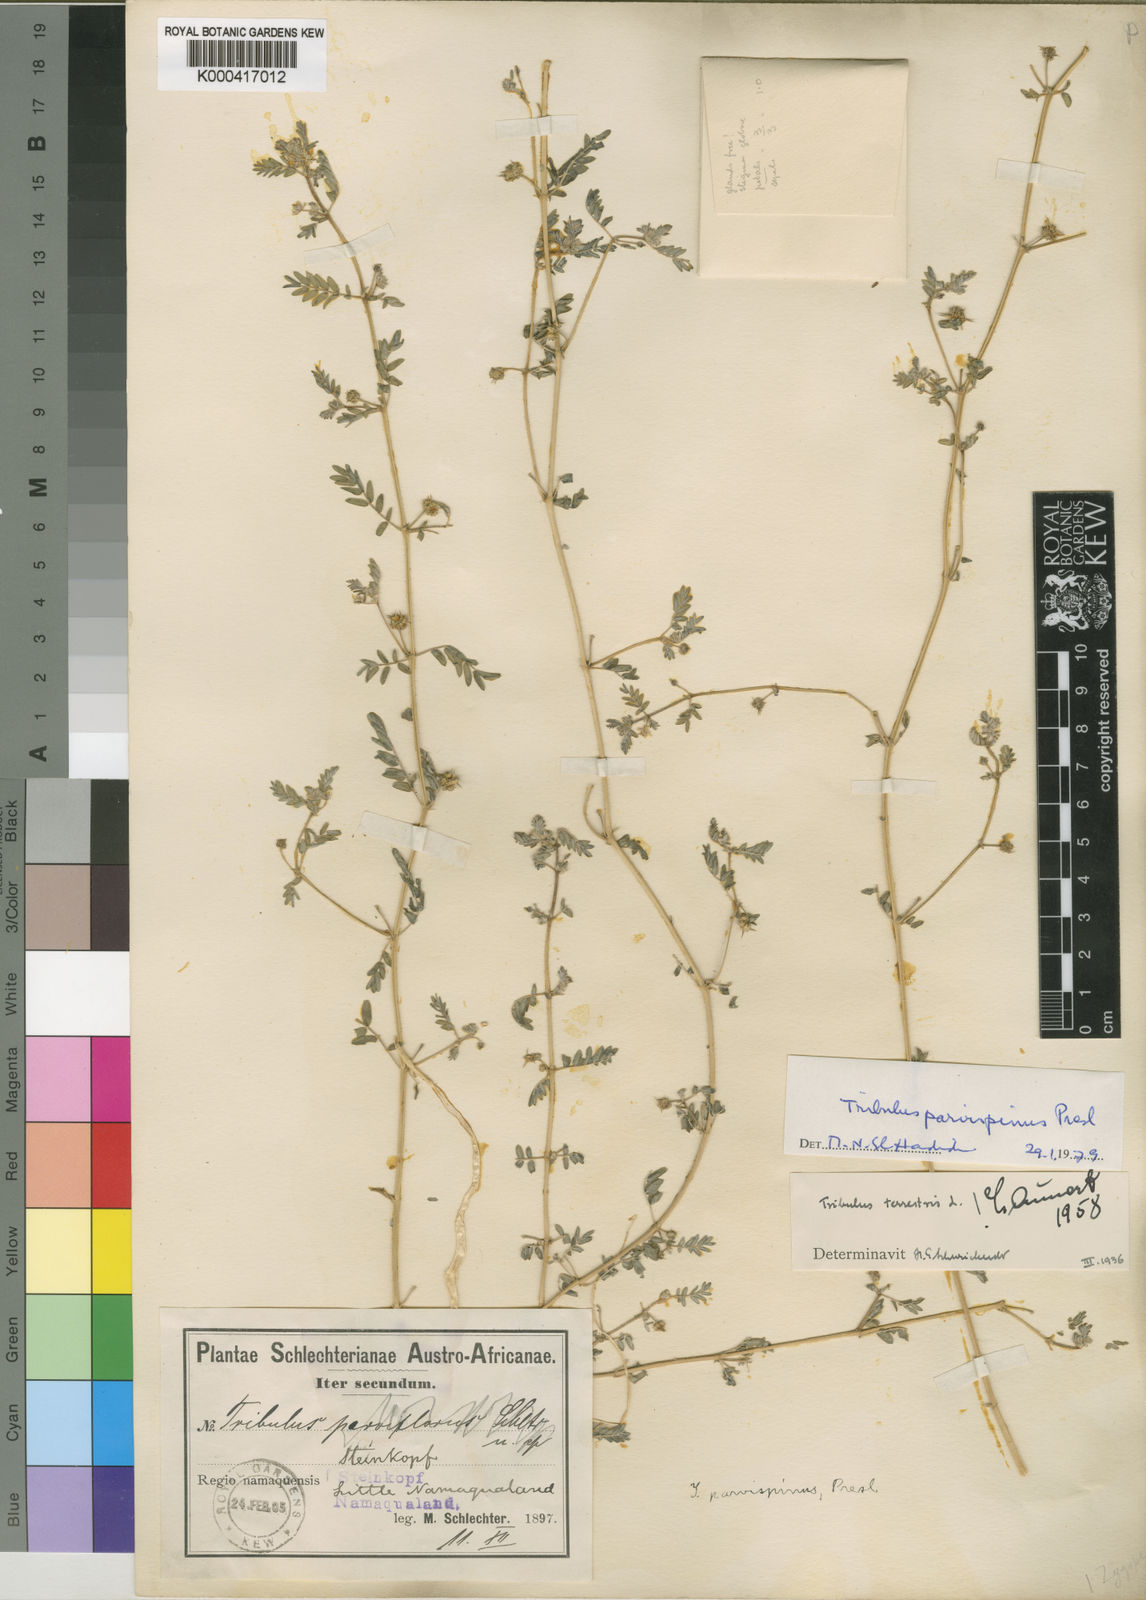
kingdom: Plantae
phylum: Tracheophyta
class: Magnoliopsida
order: Zygophyllales
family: Zygophyllaceae
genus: Tribulus
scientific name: Tribulus parvispinus
